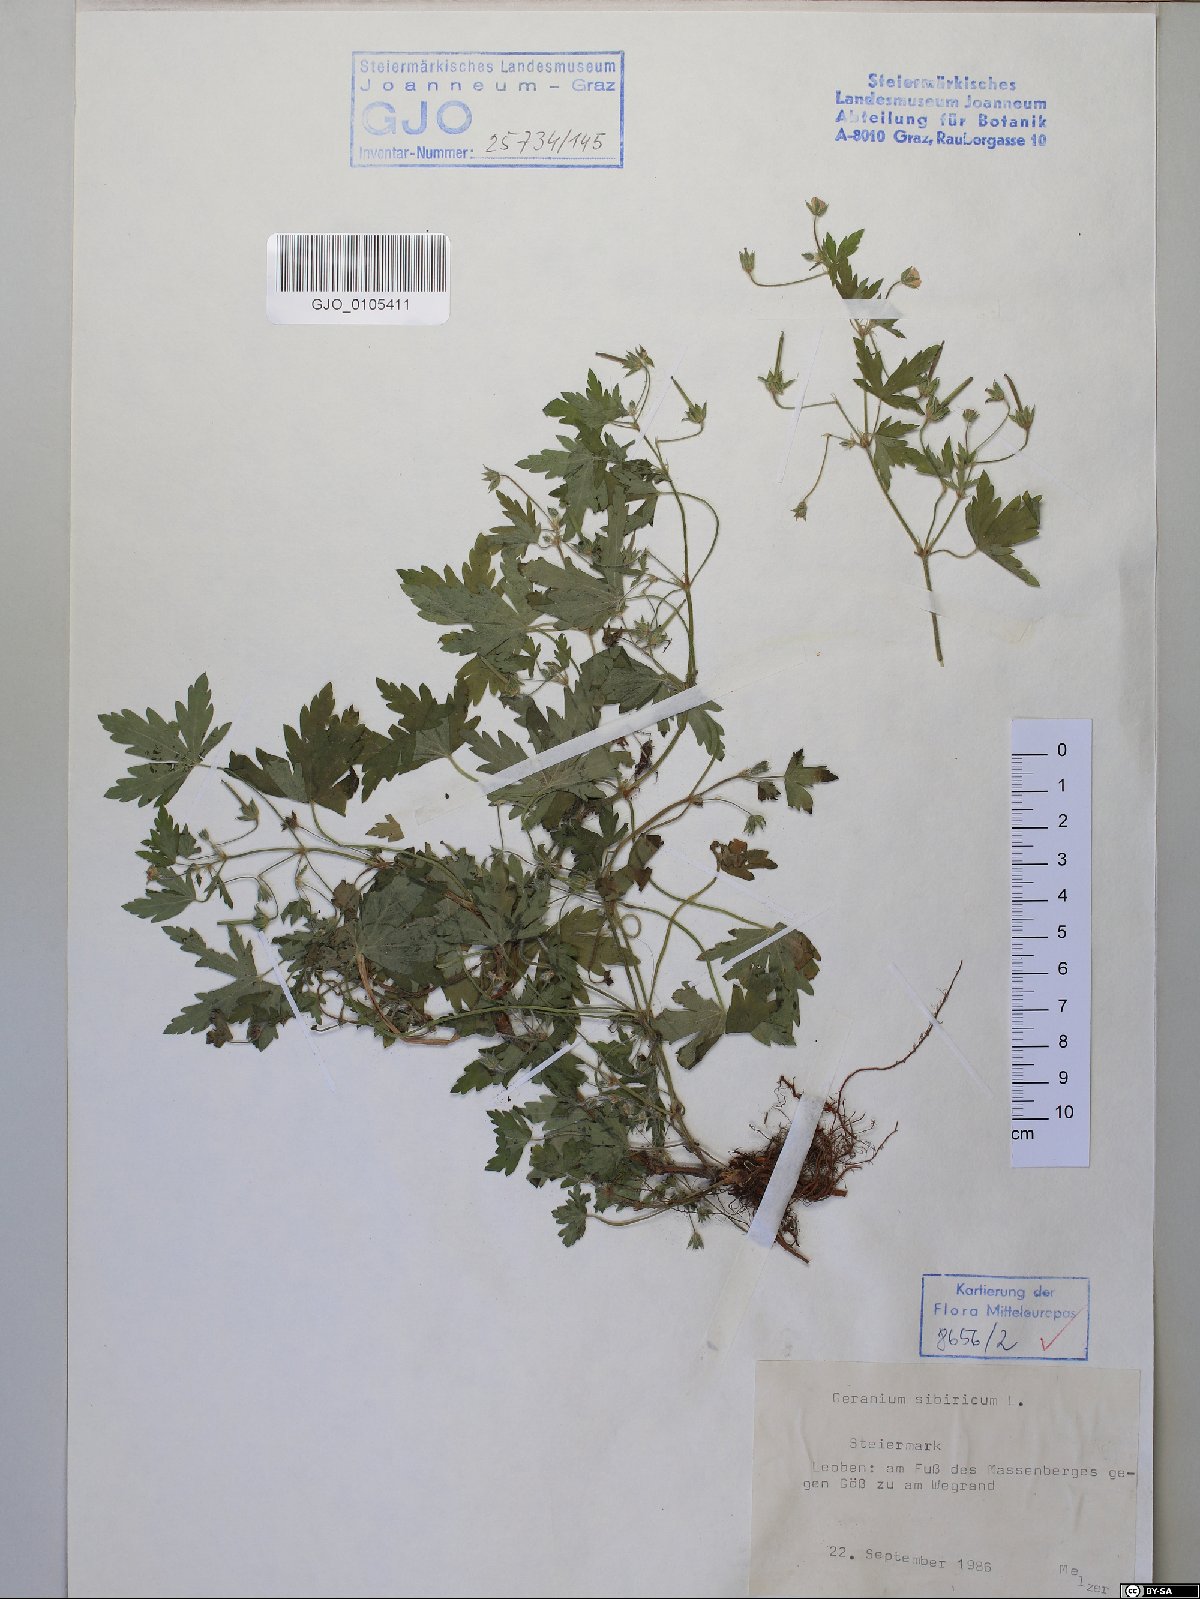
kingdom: Plantae
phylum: Tracheophyta
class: Magnoliopsida
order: Geraniales
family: Geraniaceae
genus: Geranium
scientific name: Geranium sibiricum
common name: Siberian crane's-bill
